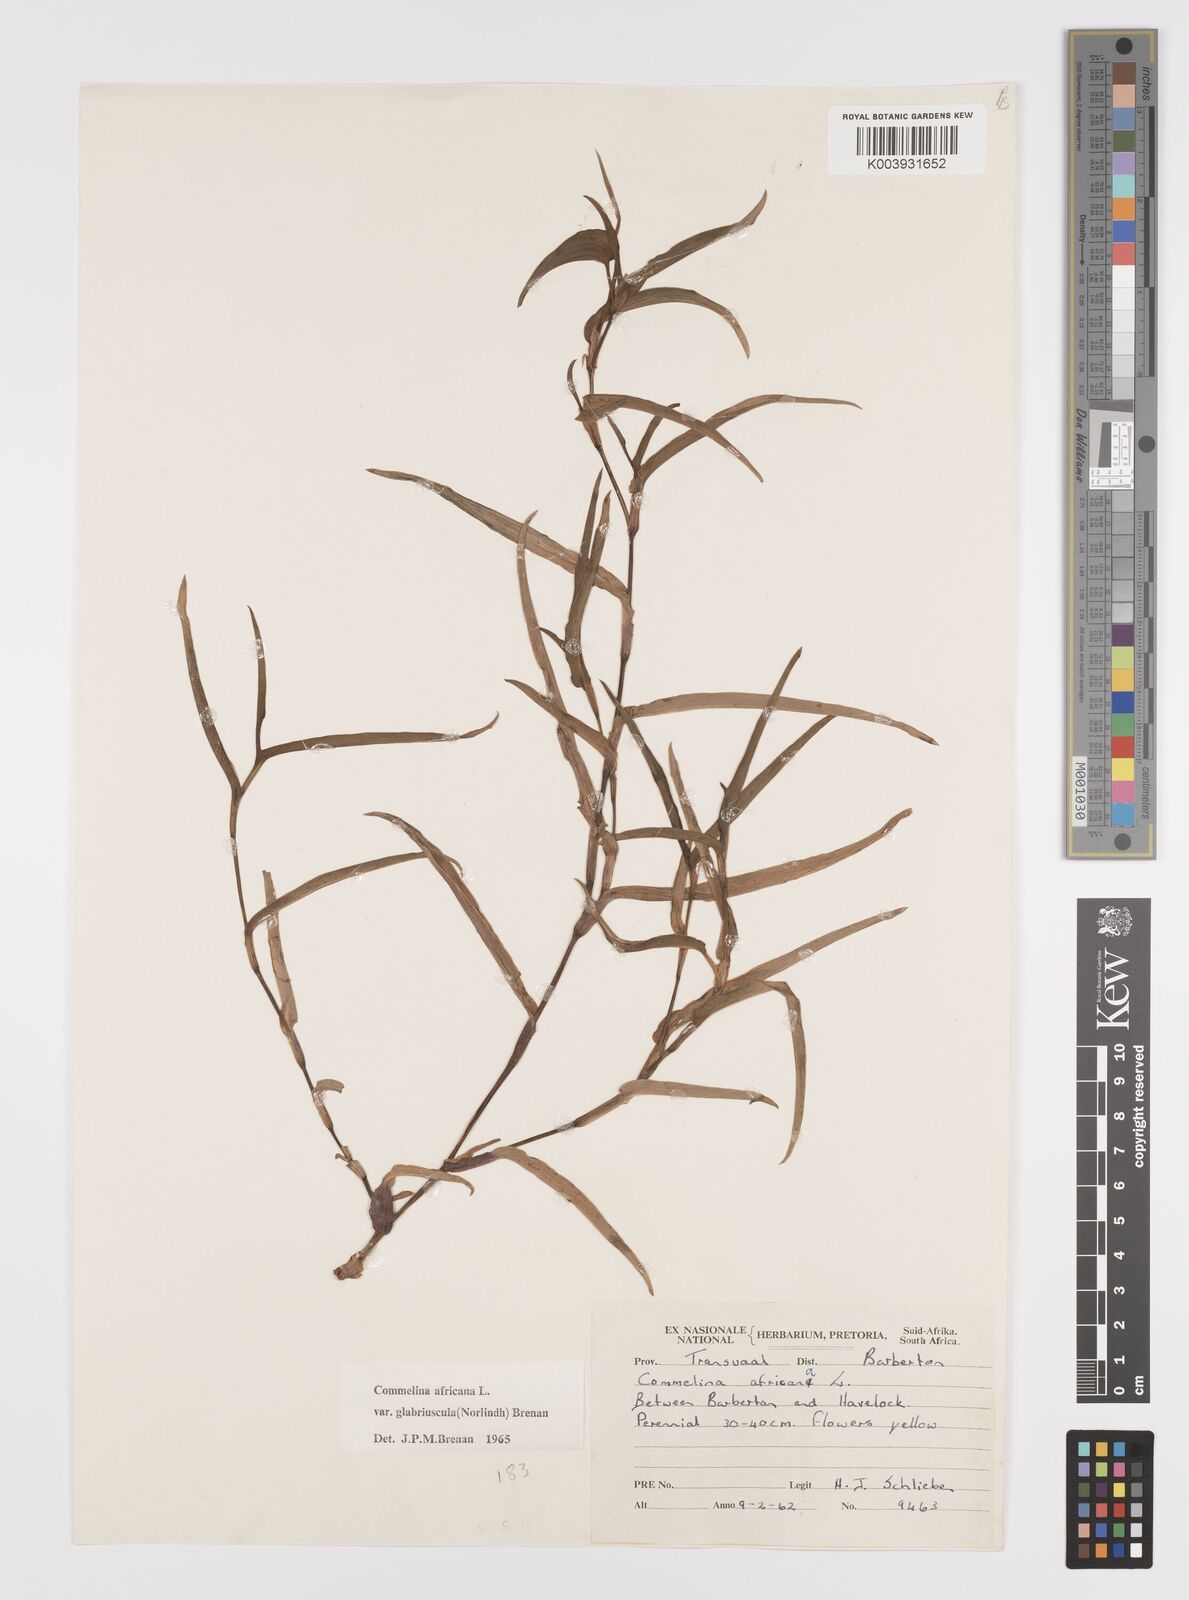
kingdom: Plantae
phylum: Tracheophyta
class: Liliopsida
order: Commelinales
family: Commelinaceae
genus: Commelina
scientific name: Commelina africana
